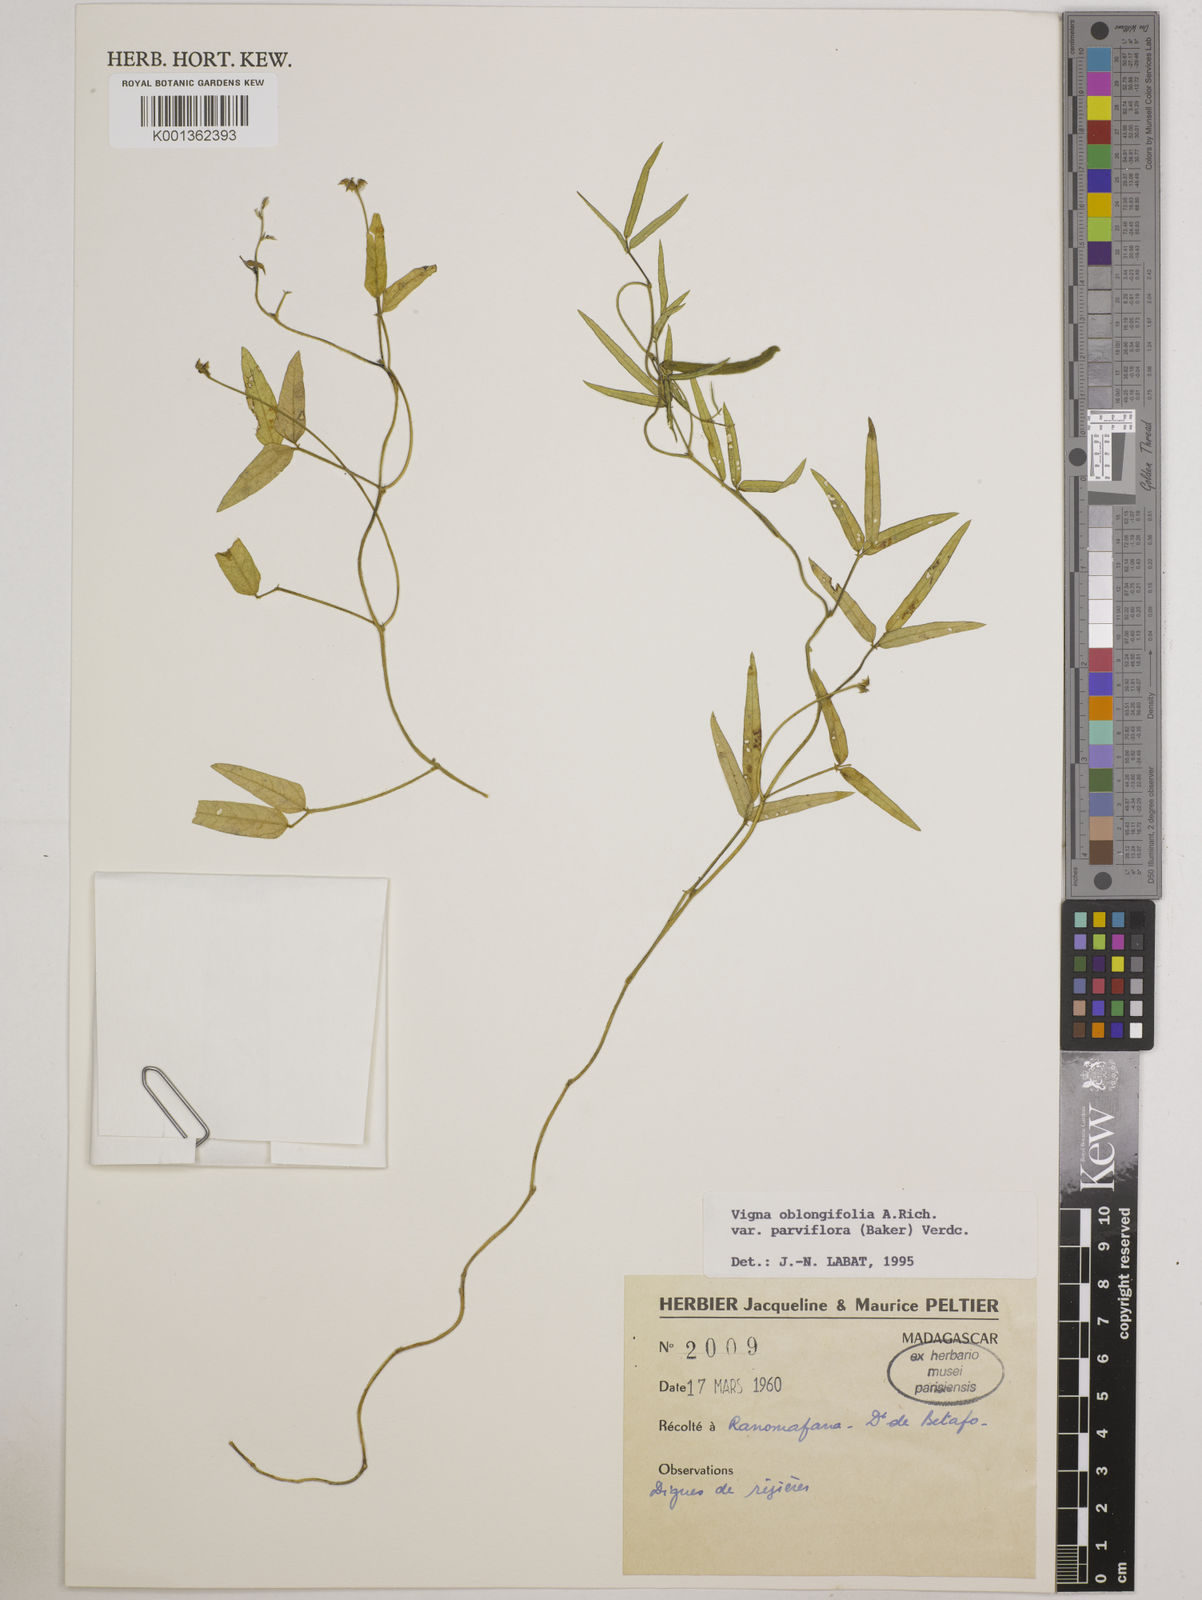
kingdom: Plantae
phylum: Tracheophyta
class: Magnoliopsida
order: Fabales
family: Fabaceae
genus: Vigna
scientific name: Vigna
